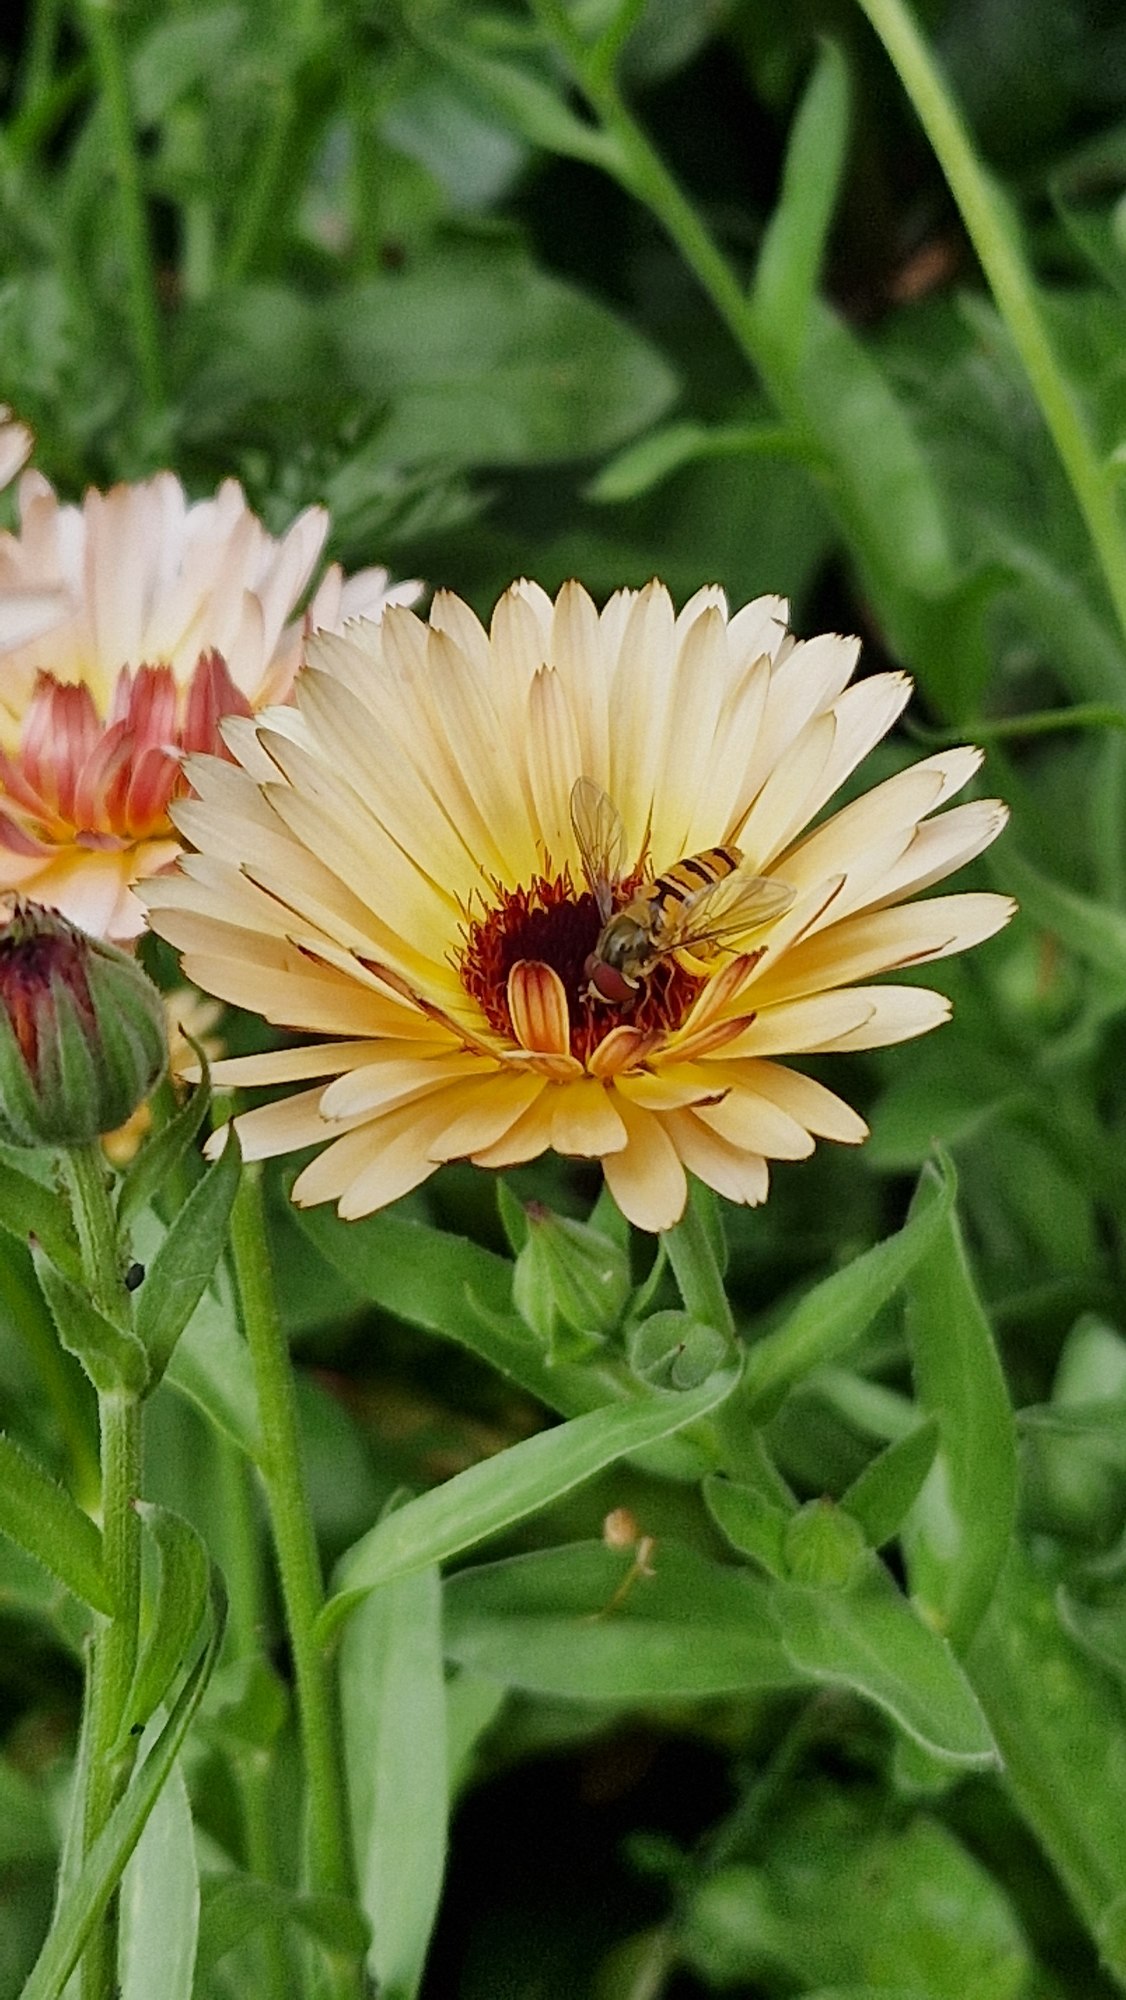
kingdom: Animalia
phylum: Arthropoda
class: Insecta
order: Diptera
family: Syrphidae
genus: Episyrphus
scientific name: Episyrphus balteatus
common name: Dobbeltbåndet svirreflue
